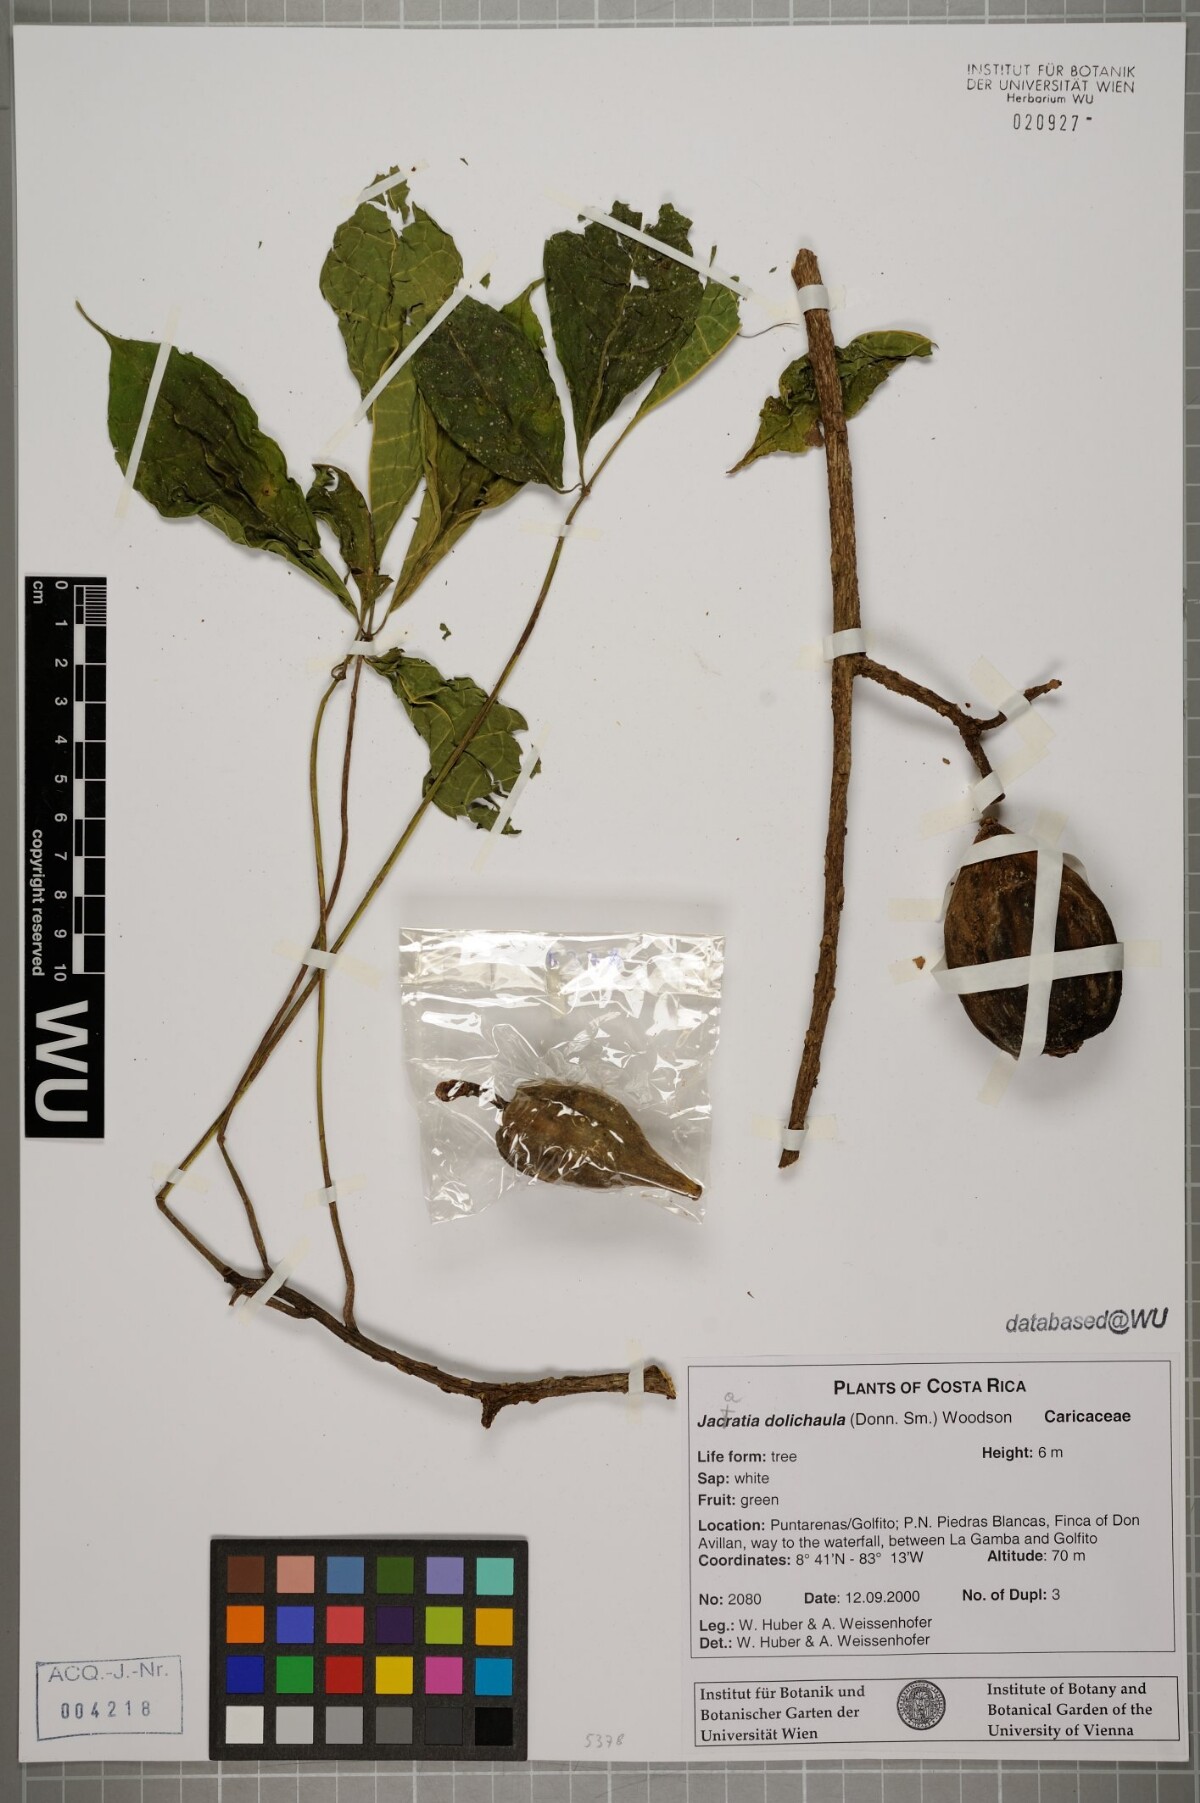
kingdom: Plantae
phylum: Tracheophyta
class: Magnoliopsida
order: Brassicales
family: Caricaceae
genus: Jacaratia
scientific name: Jacaratia dolichaula
